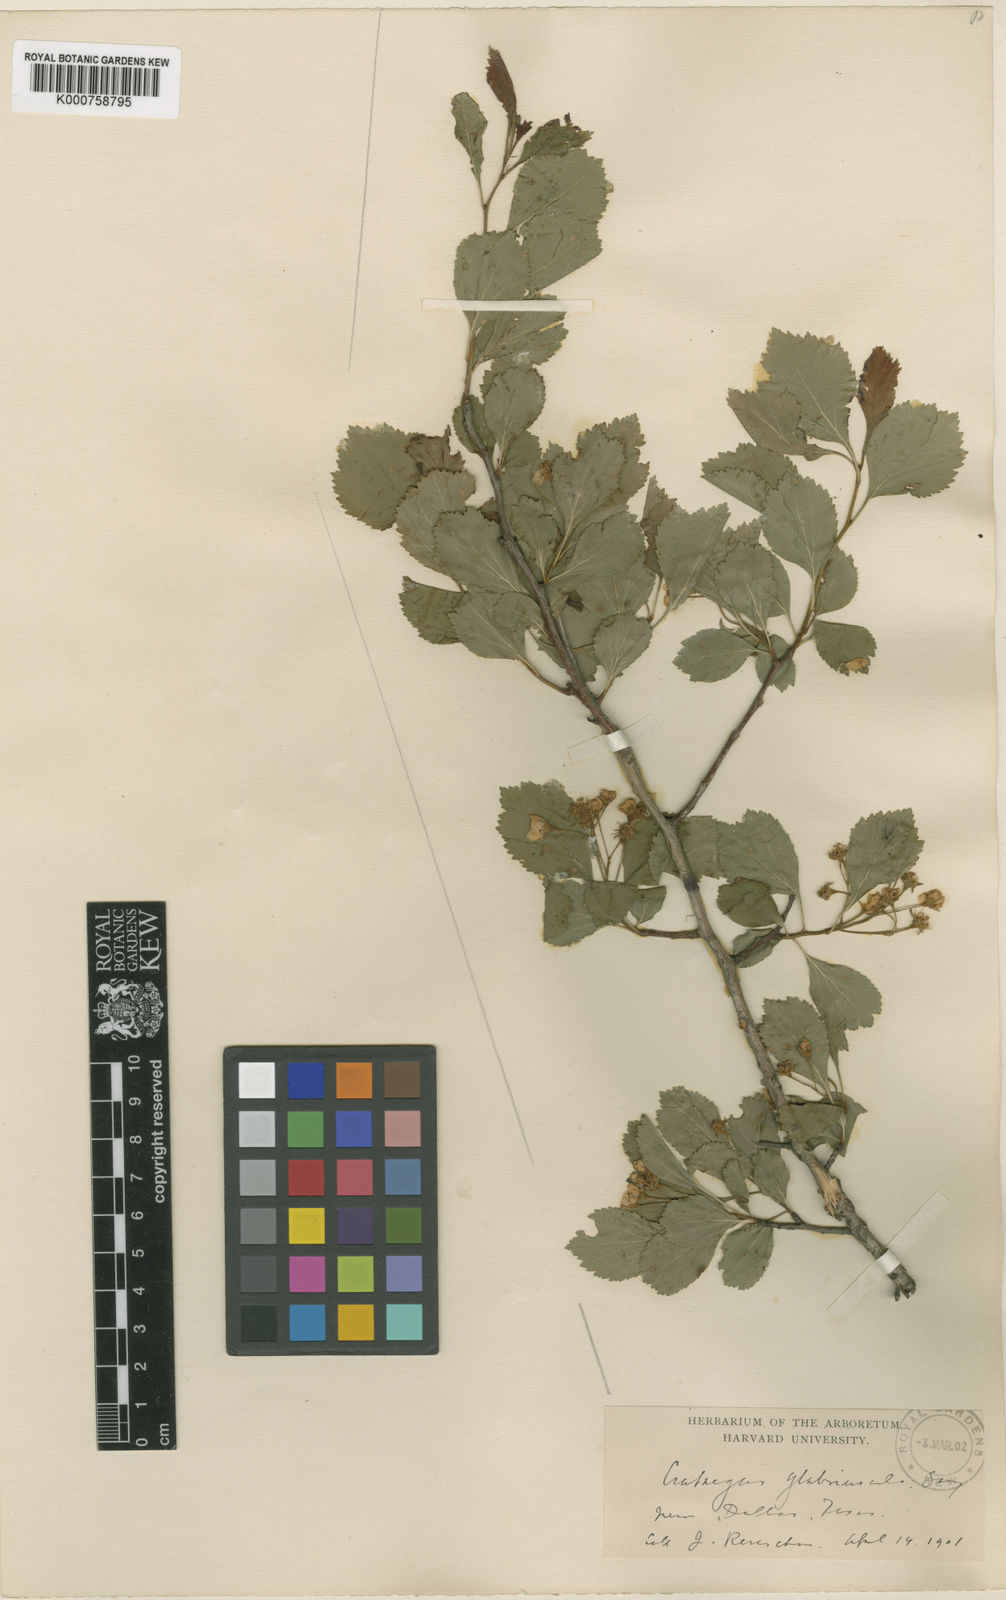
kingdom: Plantae
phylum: Tracheophyta
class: Magnoliopsida
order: Rosales
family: Rosaceae
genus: Crataegus
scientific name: Crataegus viridis
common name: Southernthorn
